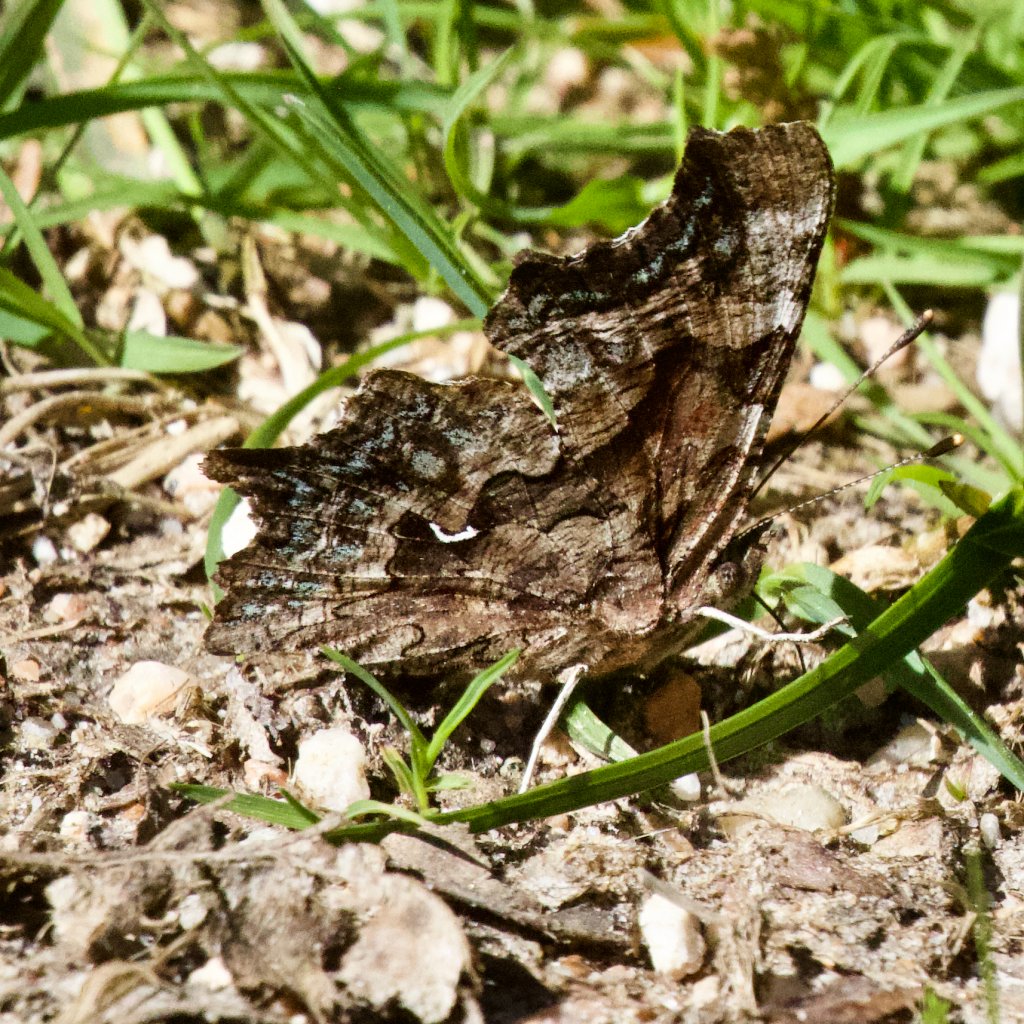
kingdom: Animalia
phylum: Arthropoda
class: Insecta
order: Lepidoptera
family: Nymphalidae
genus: Polygonia
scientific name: Polygonia faunus
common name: Green Comma
